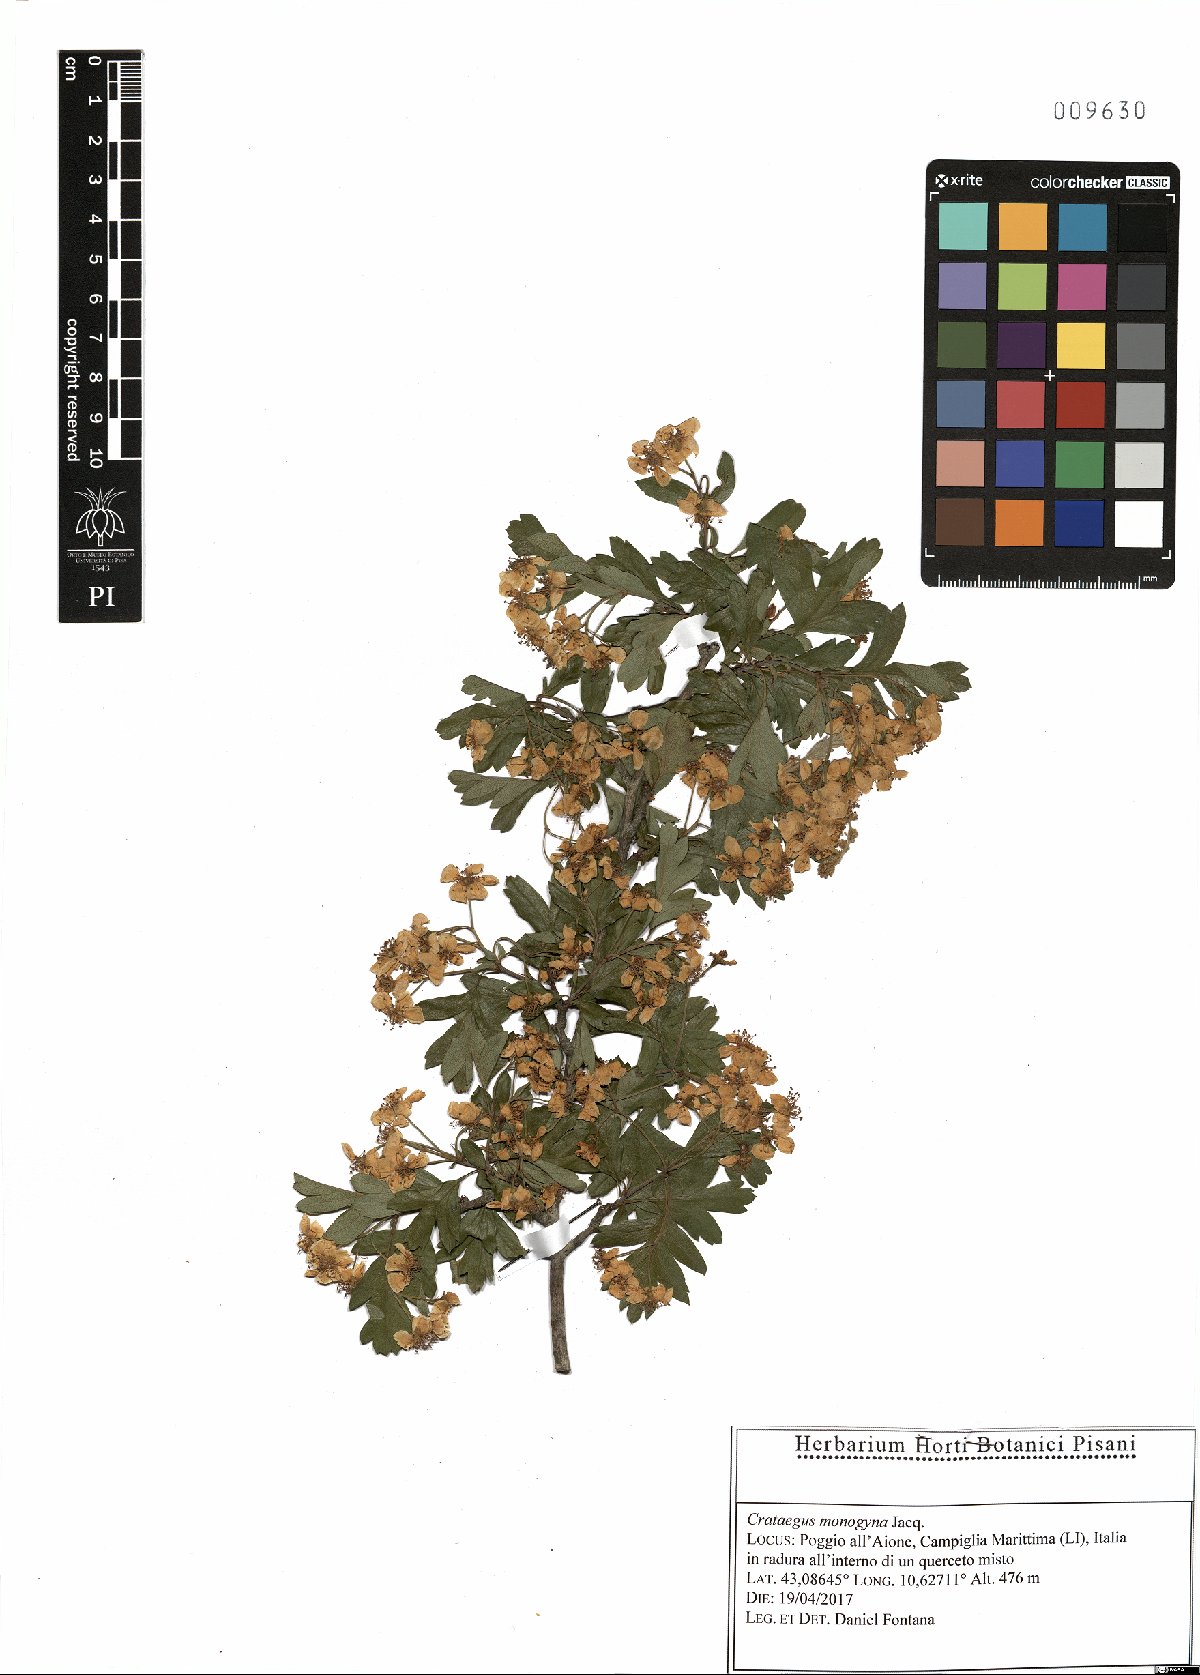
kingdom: Plantae
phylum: Tracheophyta
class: Magnoliopsida
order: Rosales
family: Rosaceae
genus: Crataegus
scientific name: Crataegus monogyna
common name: Hawthorn
